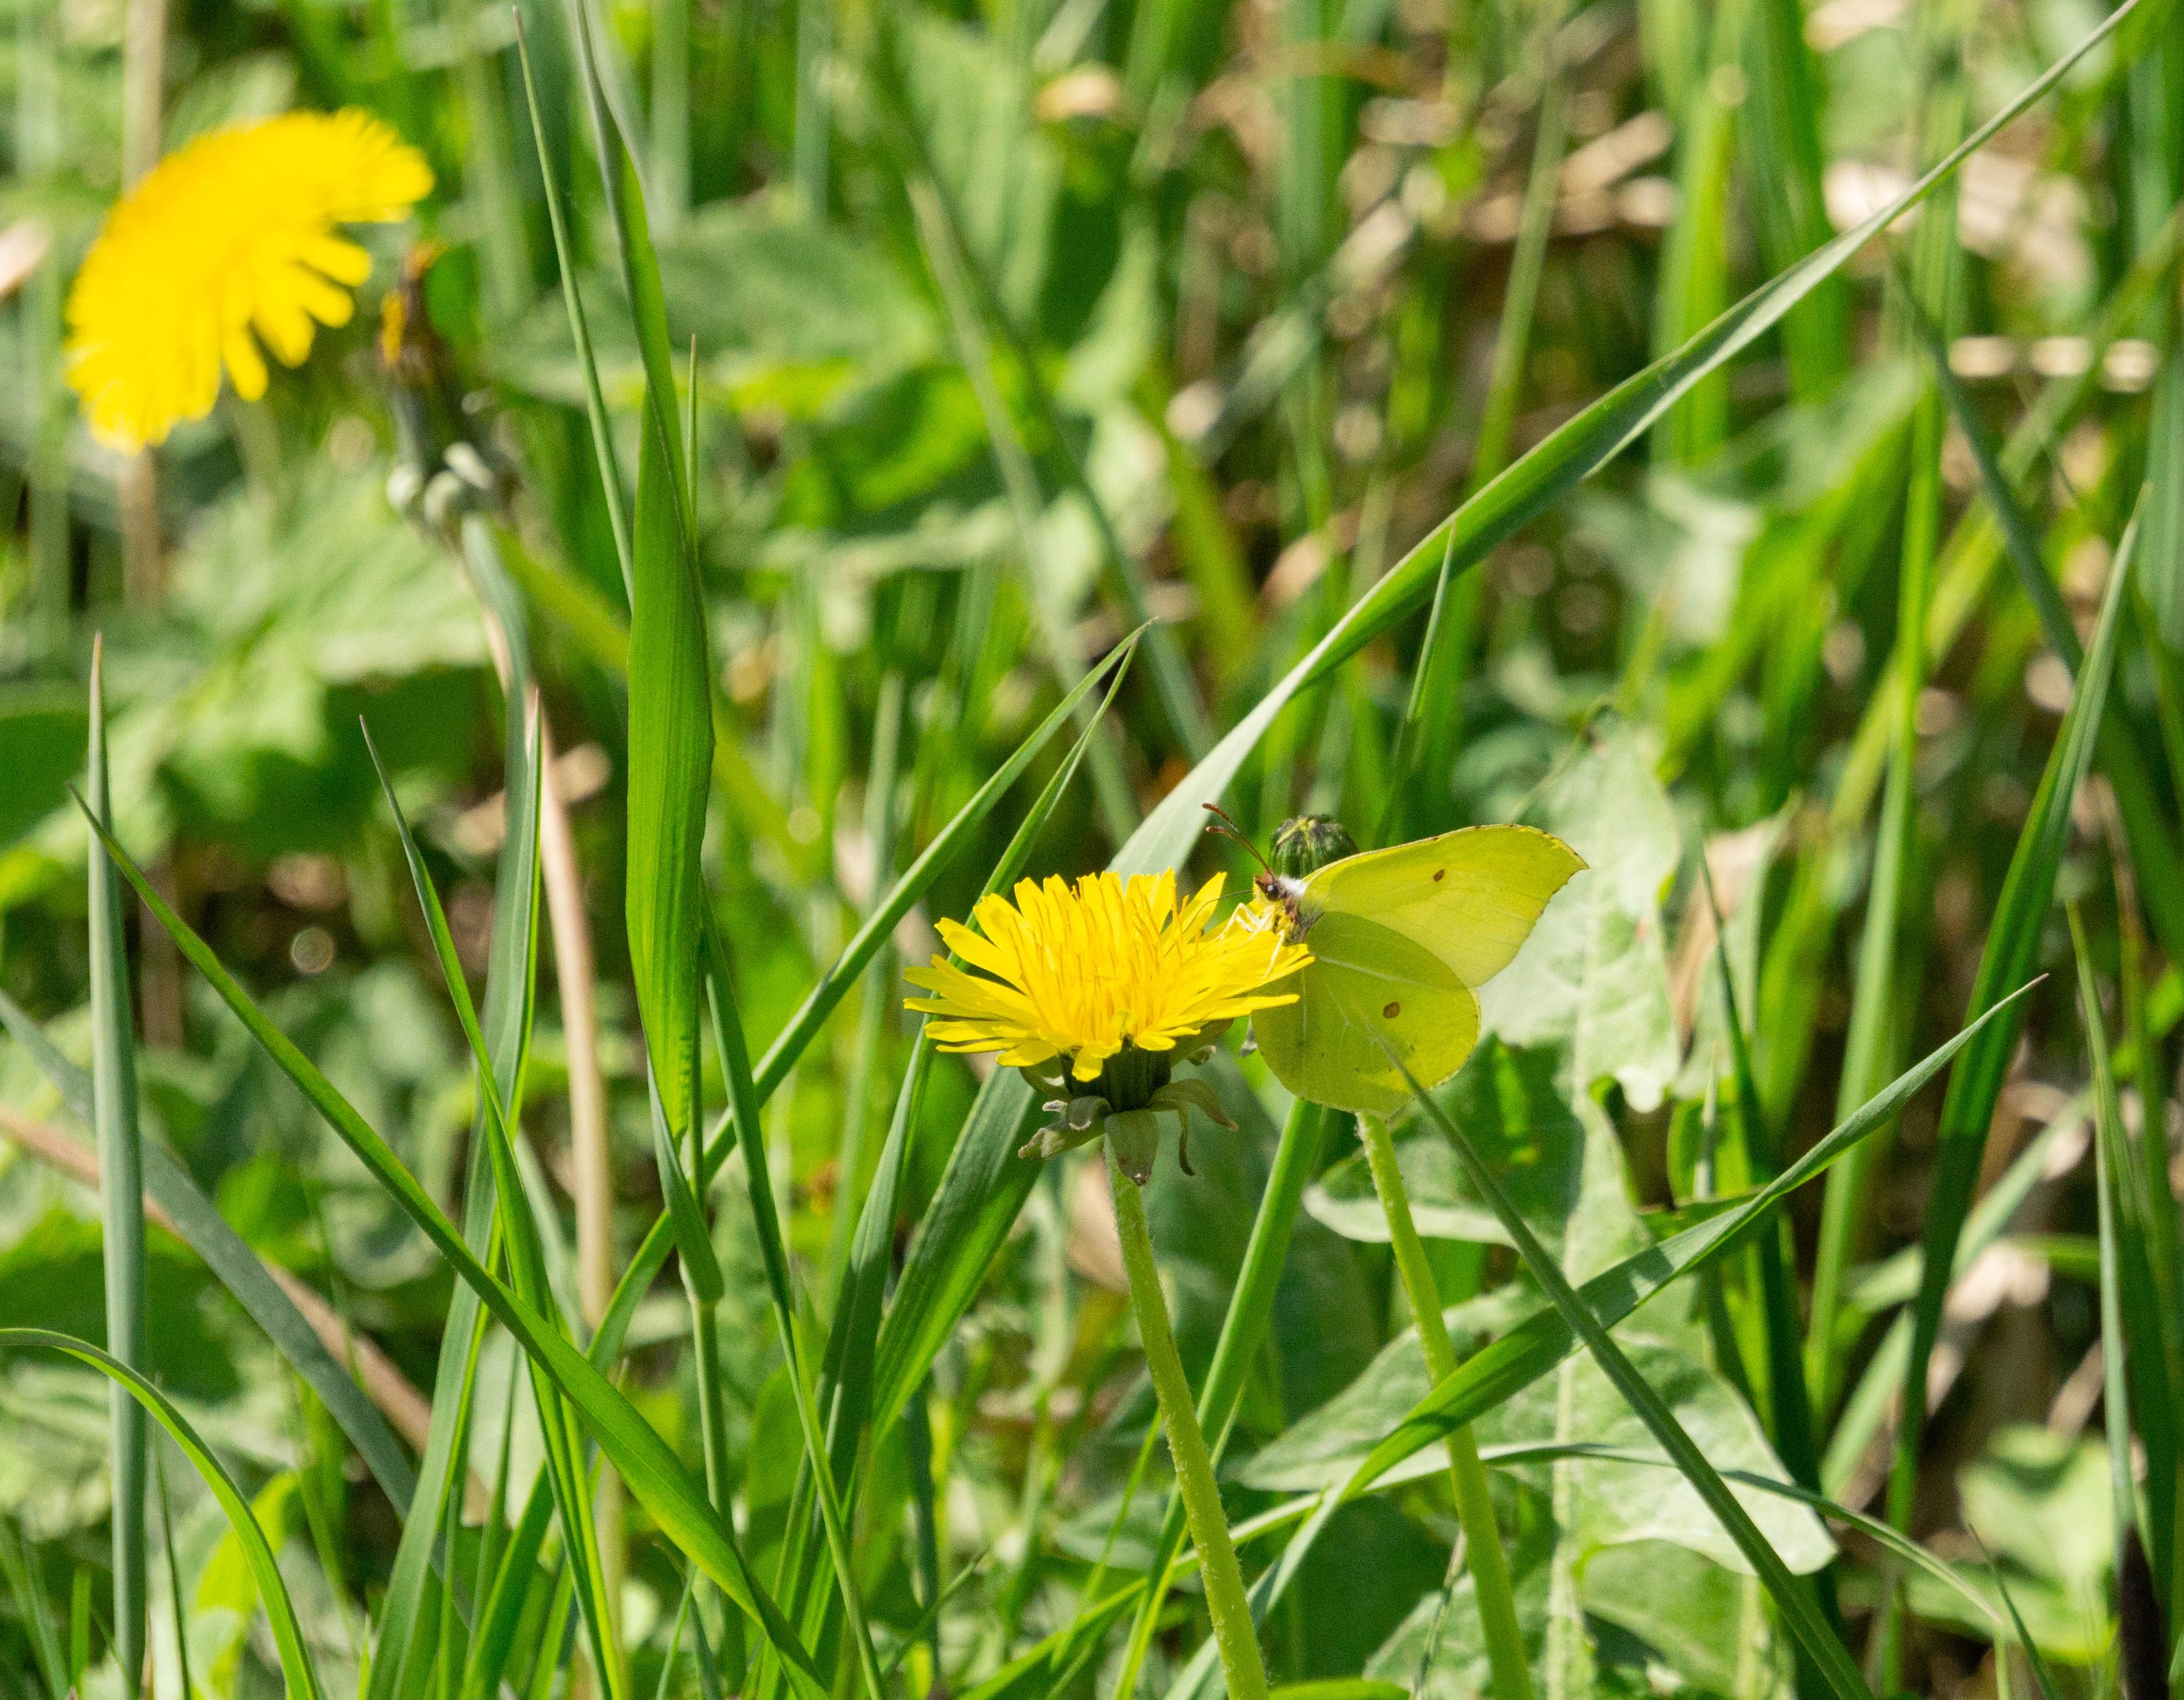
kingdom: Animalia
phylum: Arthropoda
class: Insecta
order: Lepidoptera
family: Pieridae
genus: Gonepteryx
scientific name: Gonepteryx rhamni
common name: Citronsommerfugl
